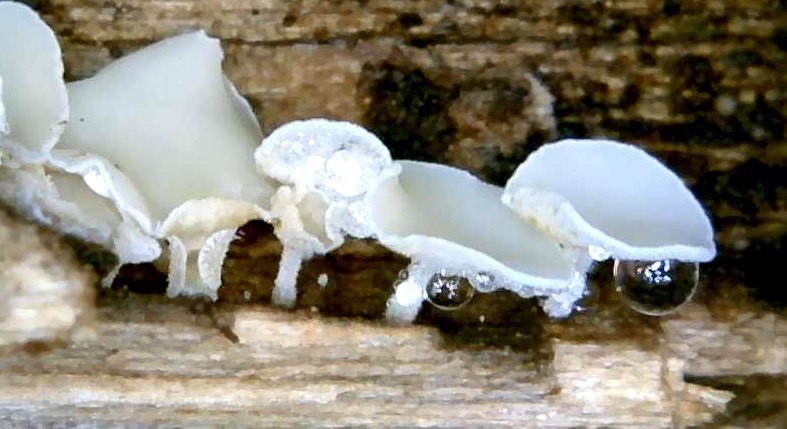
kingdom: Fungi
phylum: Ascomycota
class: Leotiomycetes
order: Helotiales
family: Lachnaceae
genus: Lachnum
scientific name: Lachnum
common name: frynseskive
